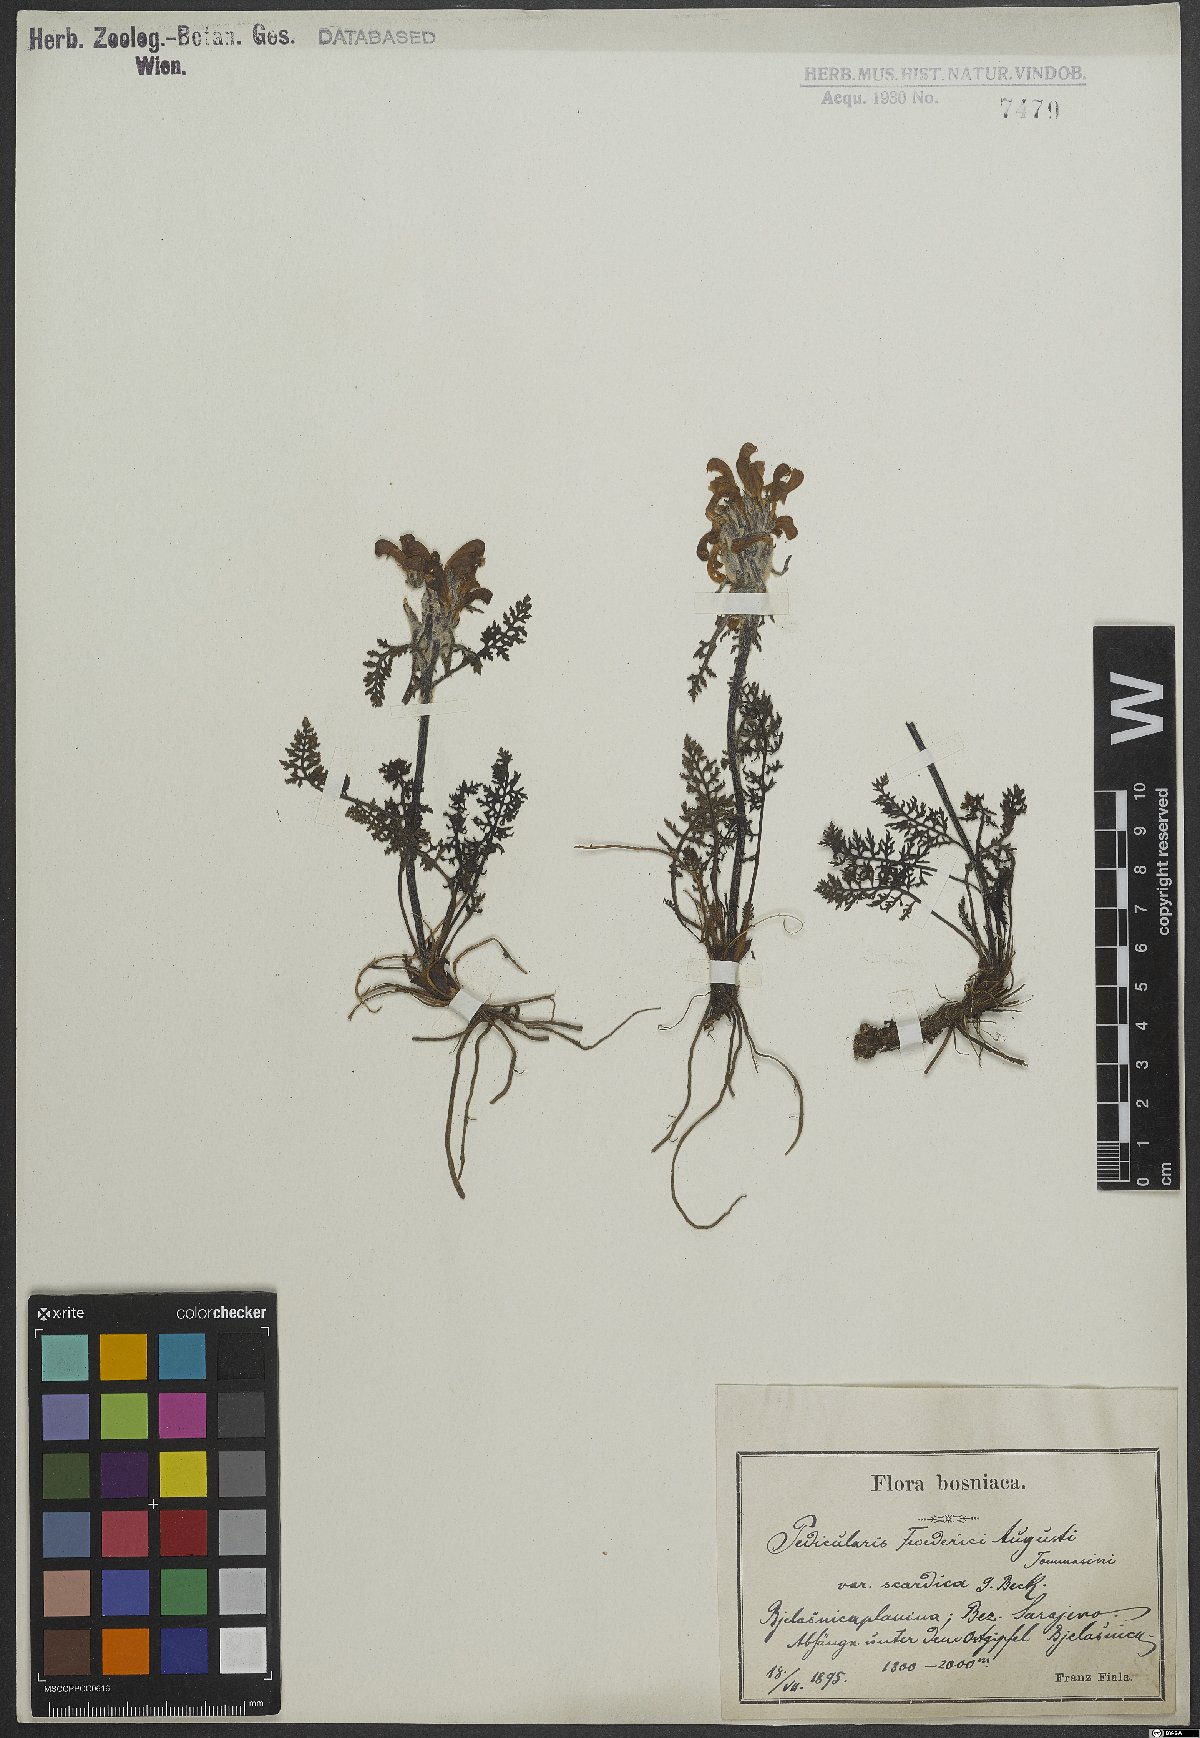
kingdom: Plantae
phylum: Tracheophyta
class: Magnoliopsida
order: Lamiales
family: Orobanchaceae
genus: Pedicularis
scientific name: Pedicularis friderici-augusti
